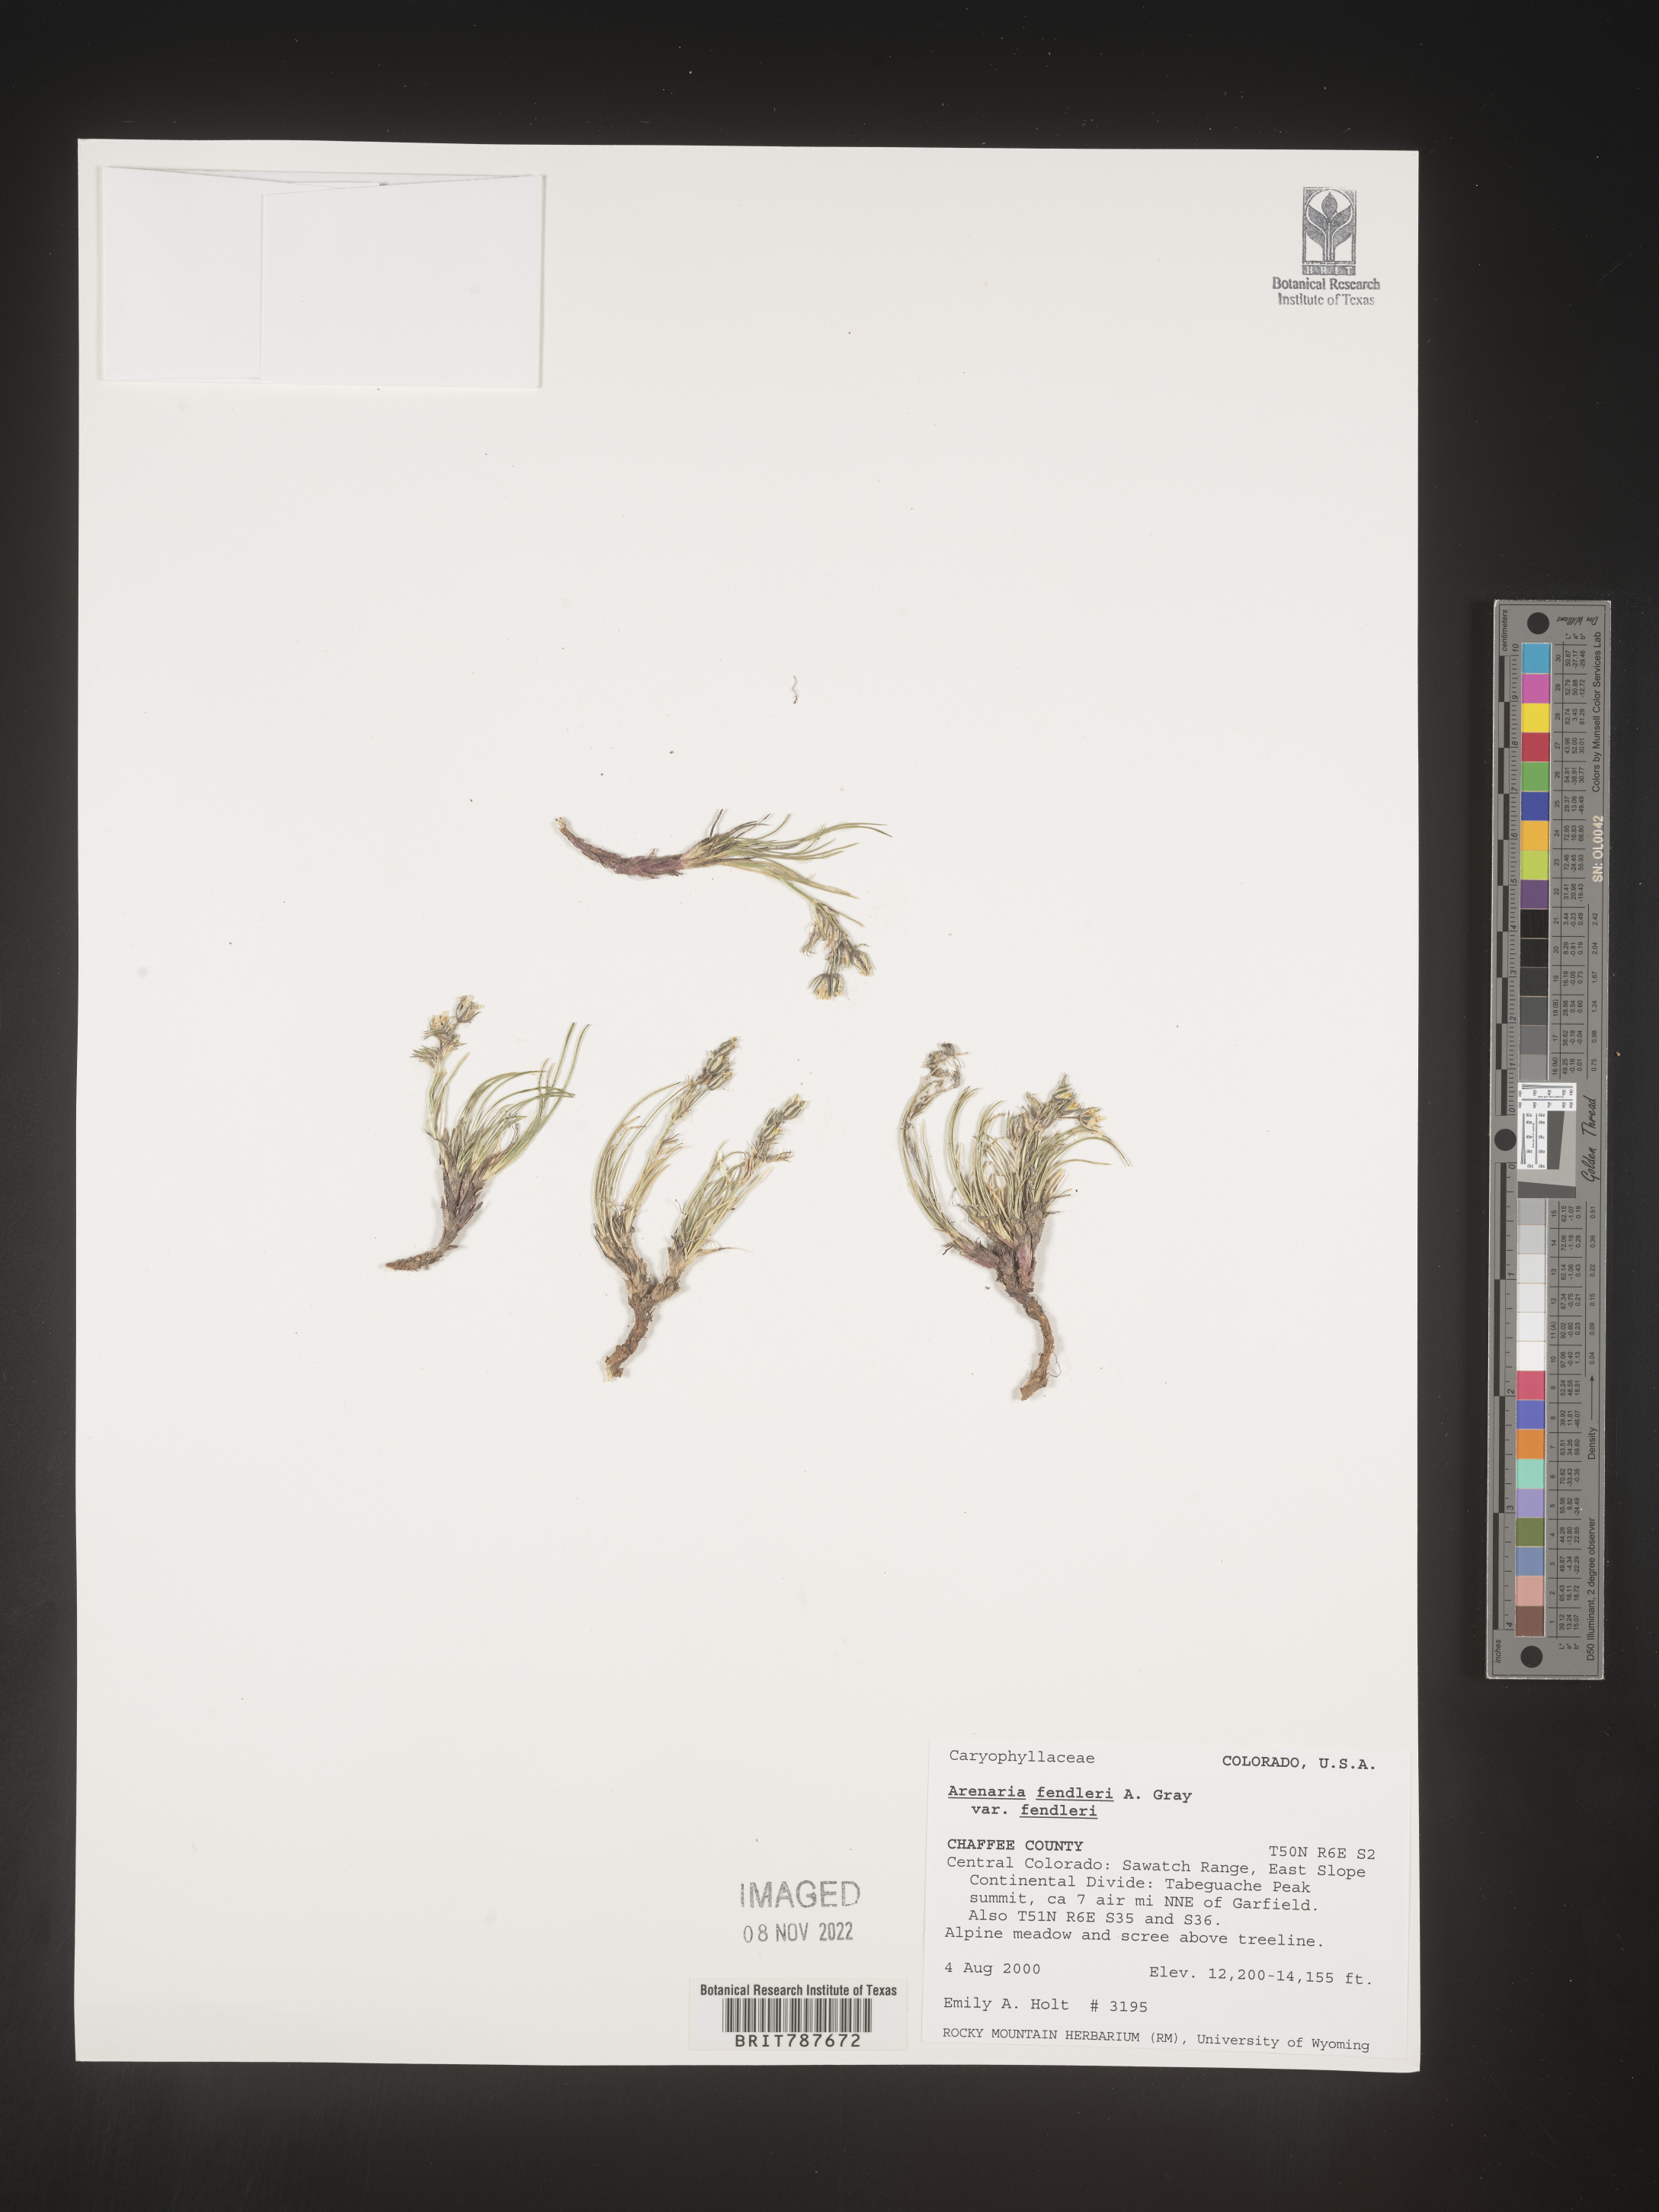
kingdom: Plantae
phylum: Tracheophyta
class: Magnoliopsida
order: Caryophyllales
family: Caryophyllaceae
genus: Arenaria
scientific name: Arenaria
